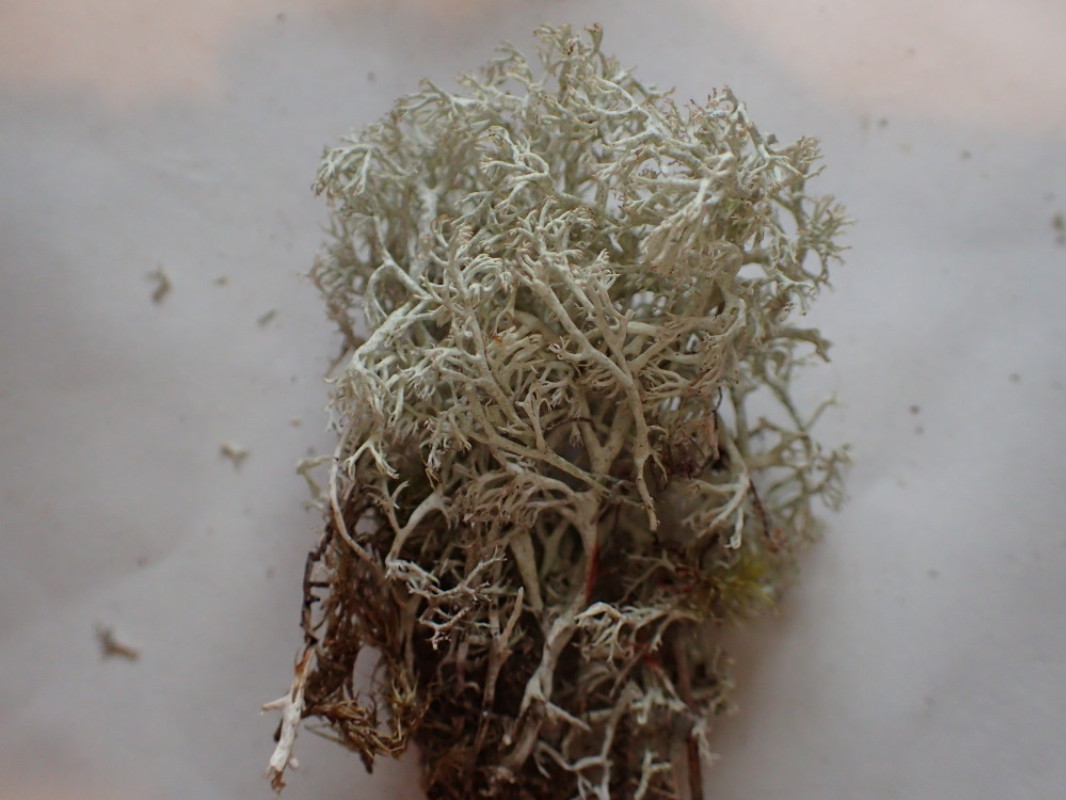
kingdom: Fungi
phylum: Ascomycota
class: Lecanoromycetes
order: Lecanorales
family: Cladoniaceae
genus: Cladonia
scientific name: Cladonia arbuscula
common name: gulhvid rensdyrlav
